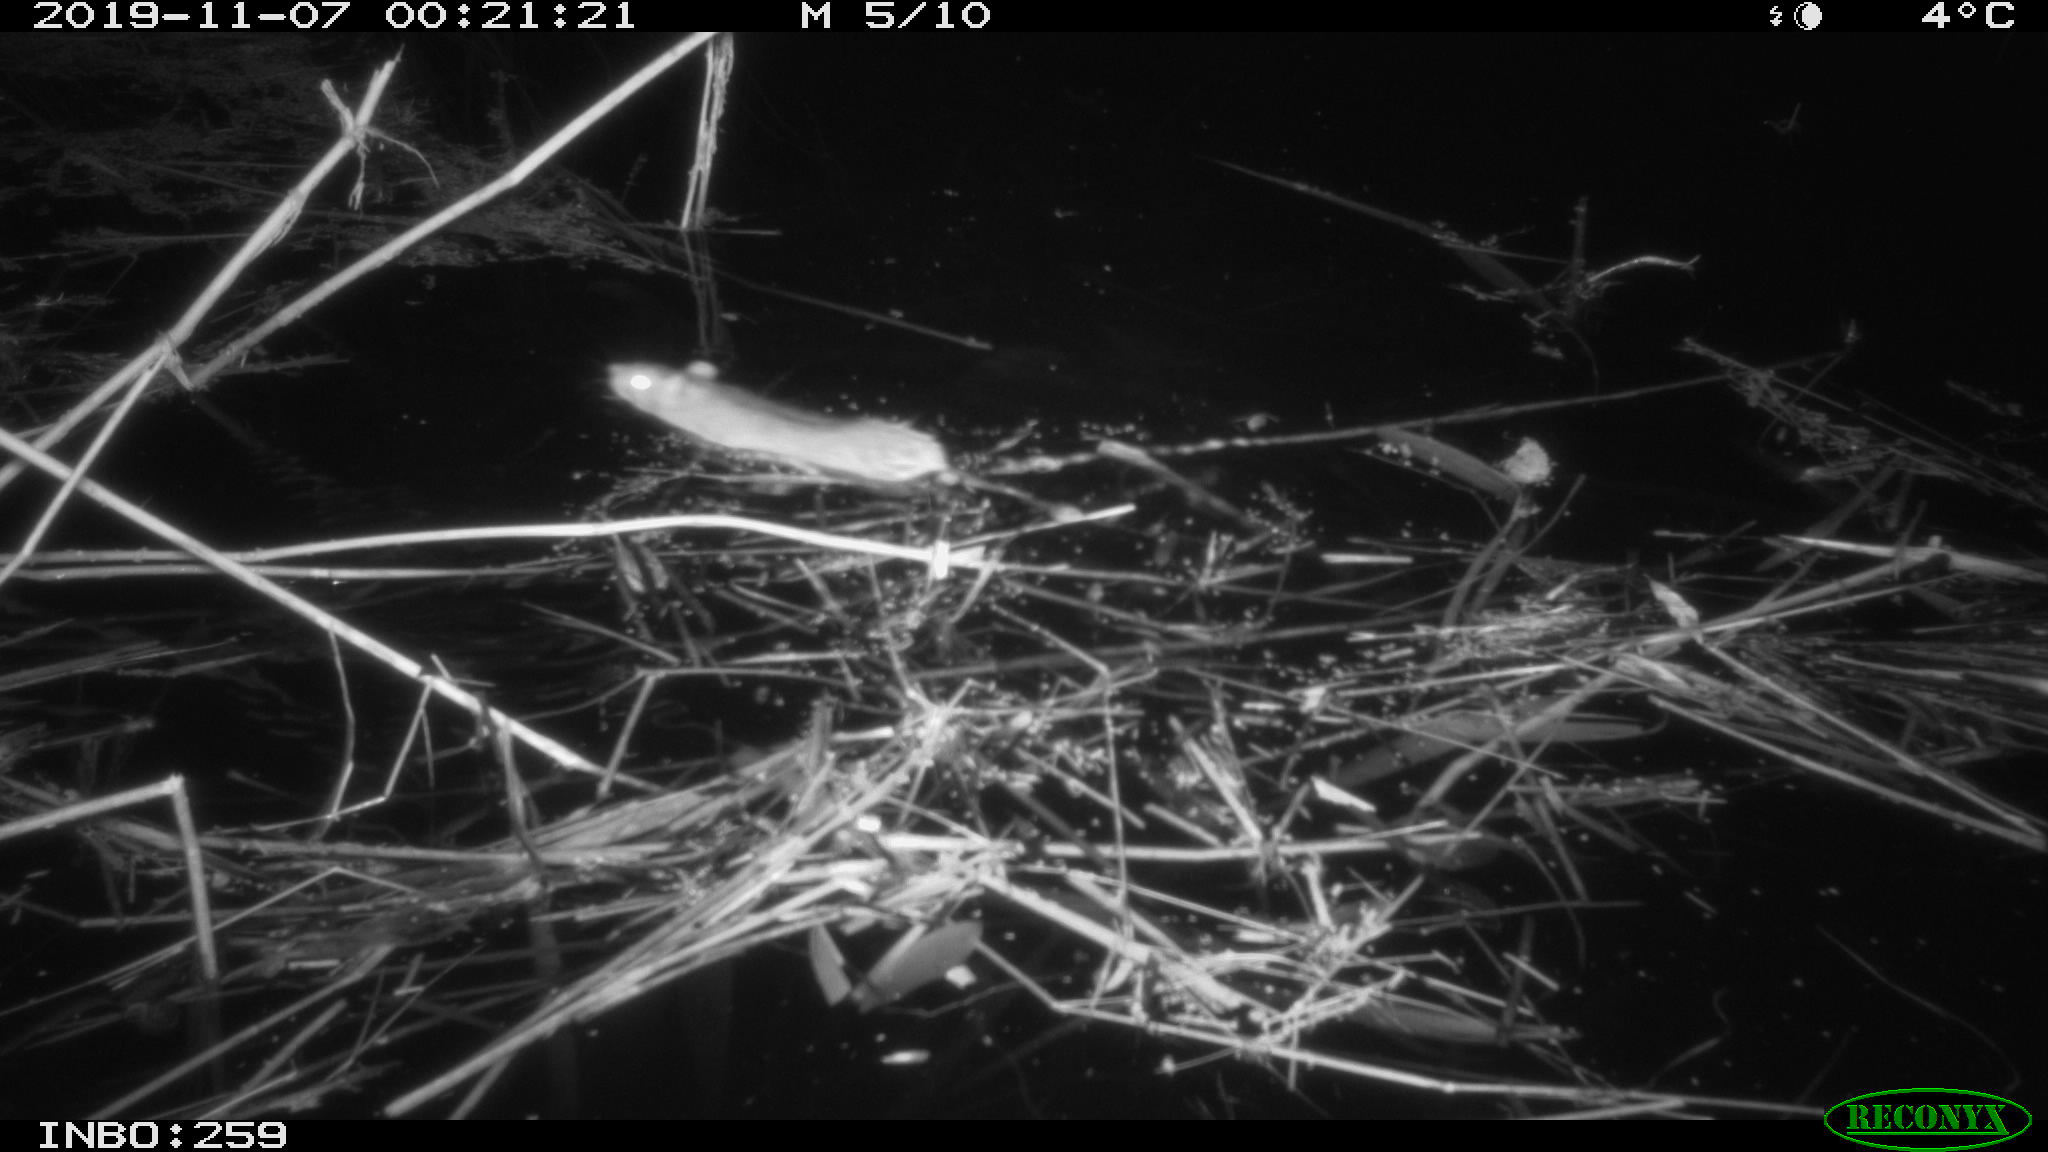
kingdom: Animalia
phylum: Chordata
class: Mammalia
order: Rodentia
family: Muridae
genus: Rattus
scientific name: Rattus norvegicus
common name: Brown rat
